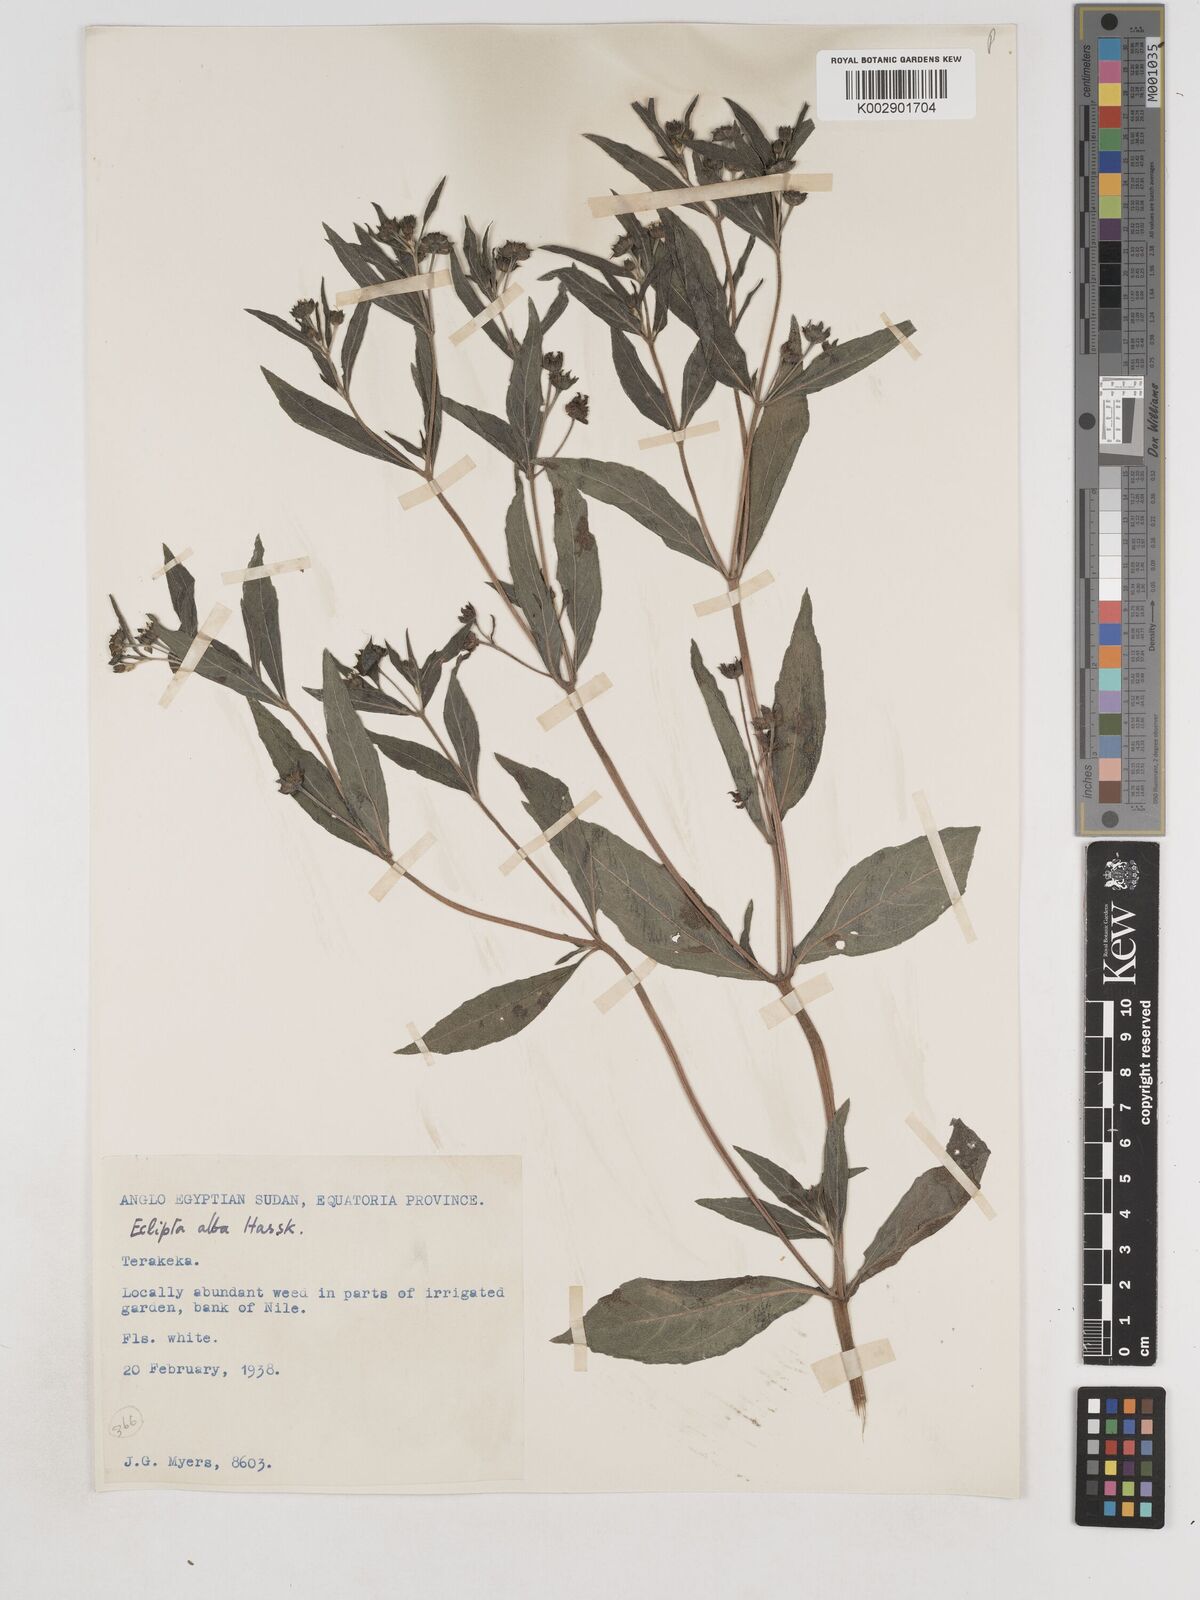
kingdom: Plantae
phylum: Tracheophyta
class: Magnoliopsida
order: Asterales
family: Asteraceae
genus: Eclipta
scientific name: Eclipta alba
